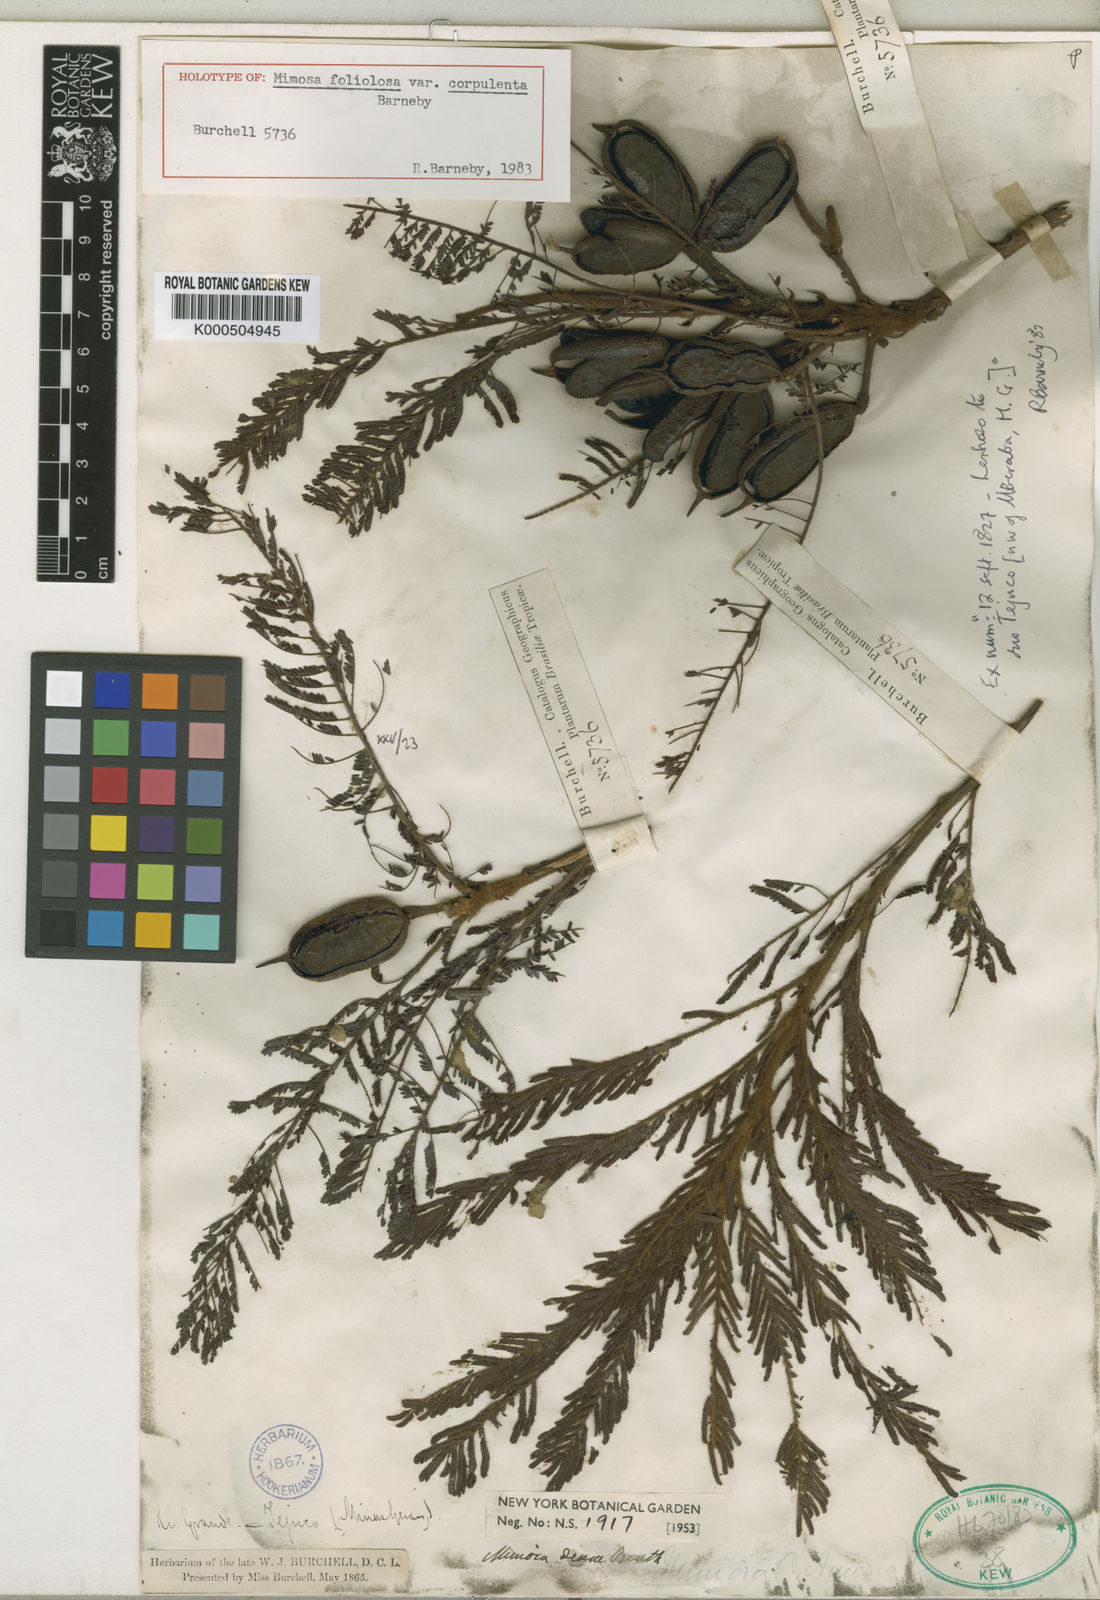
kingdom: Plantae
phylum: Tracheophyta
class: Magnoliopsida
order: Fabales
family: Fabaceae
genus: Mimosa
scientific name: Mimosa
